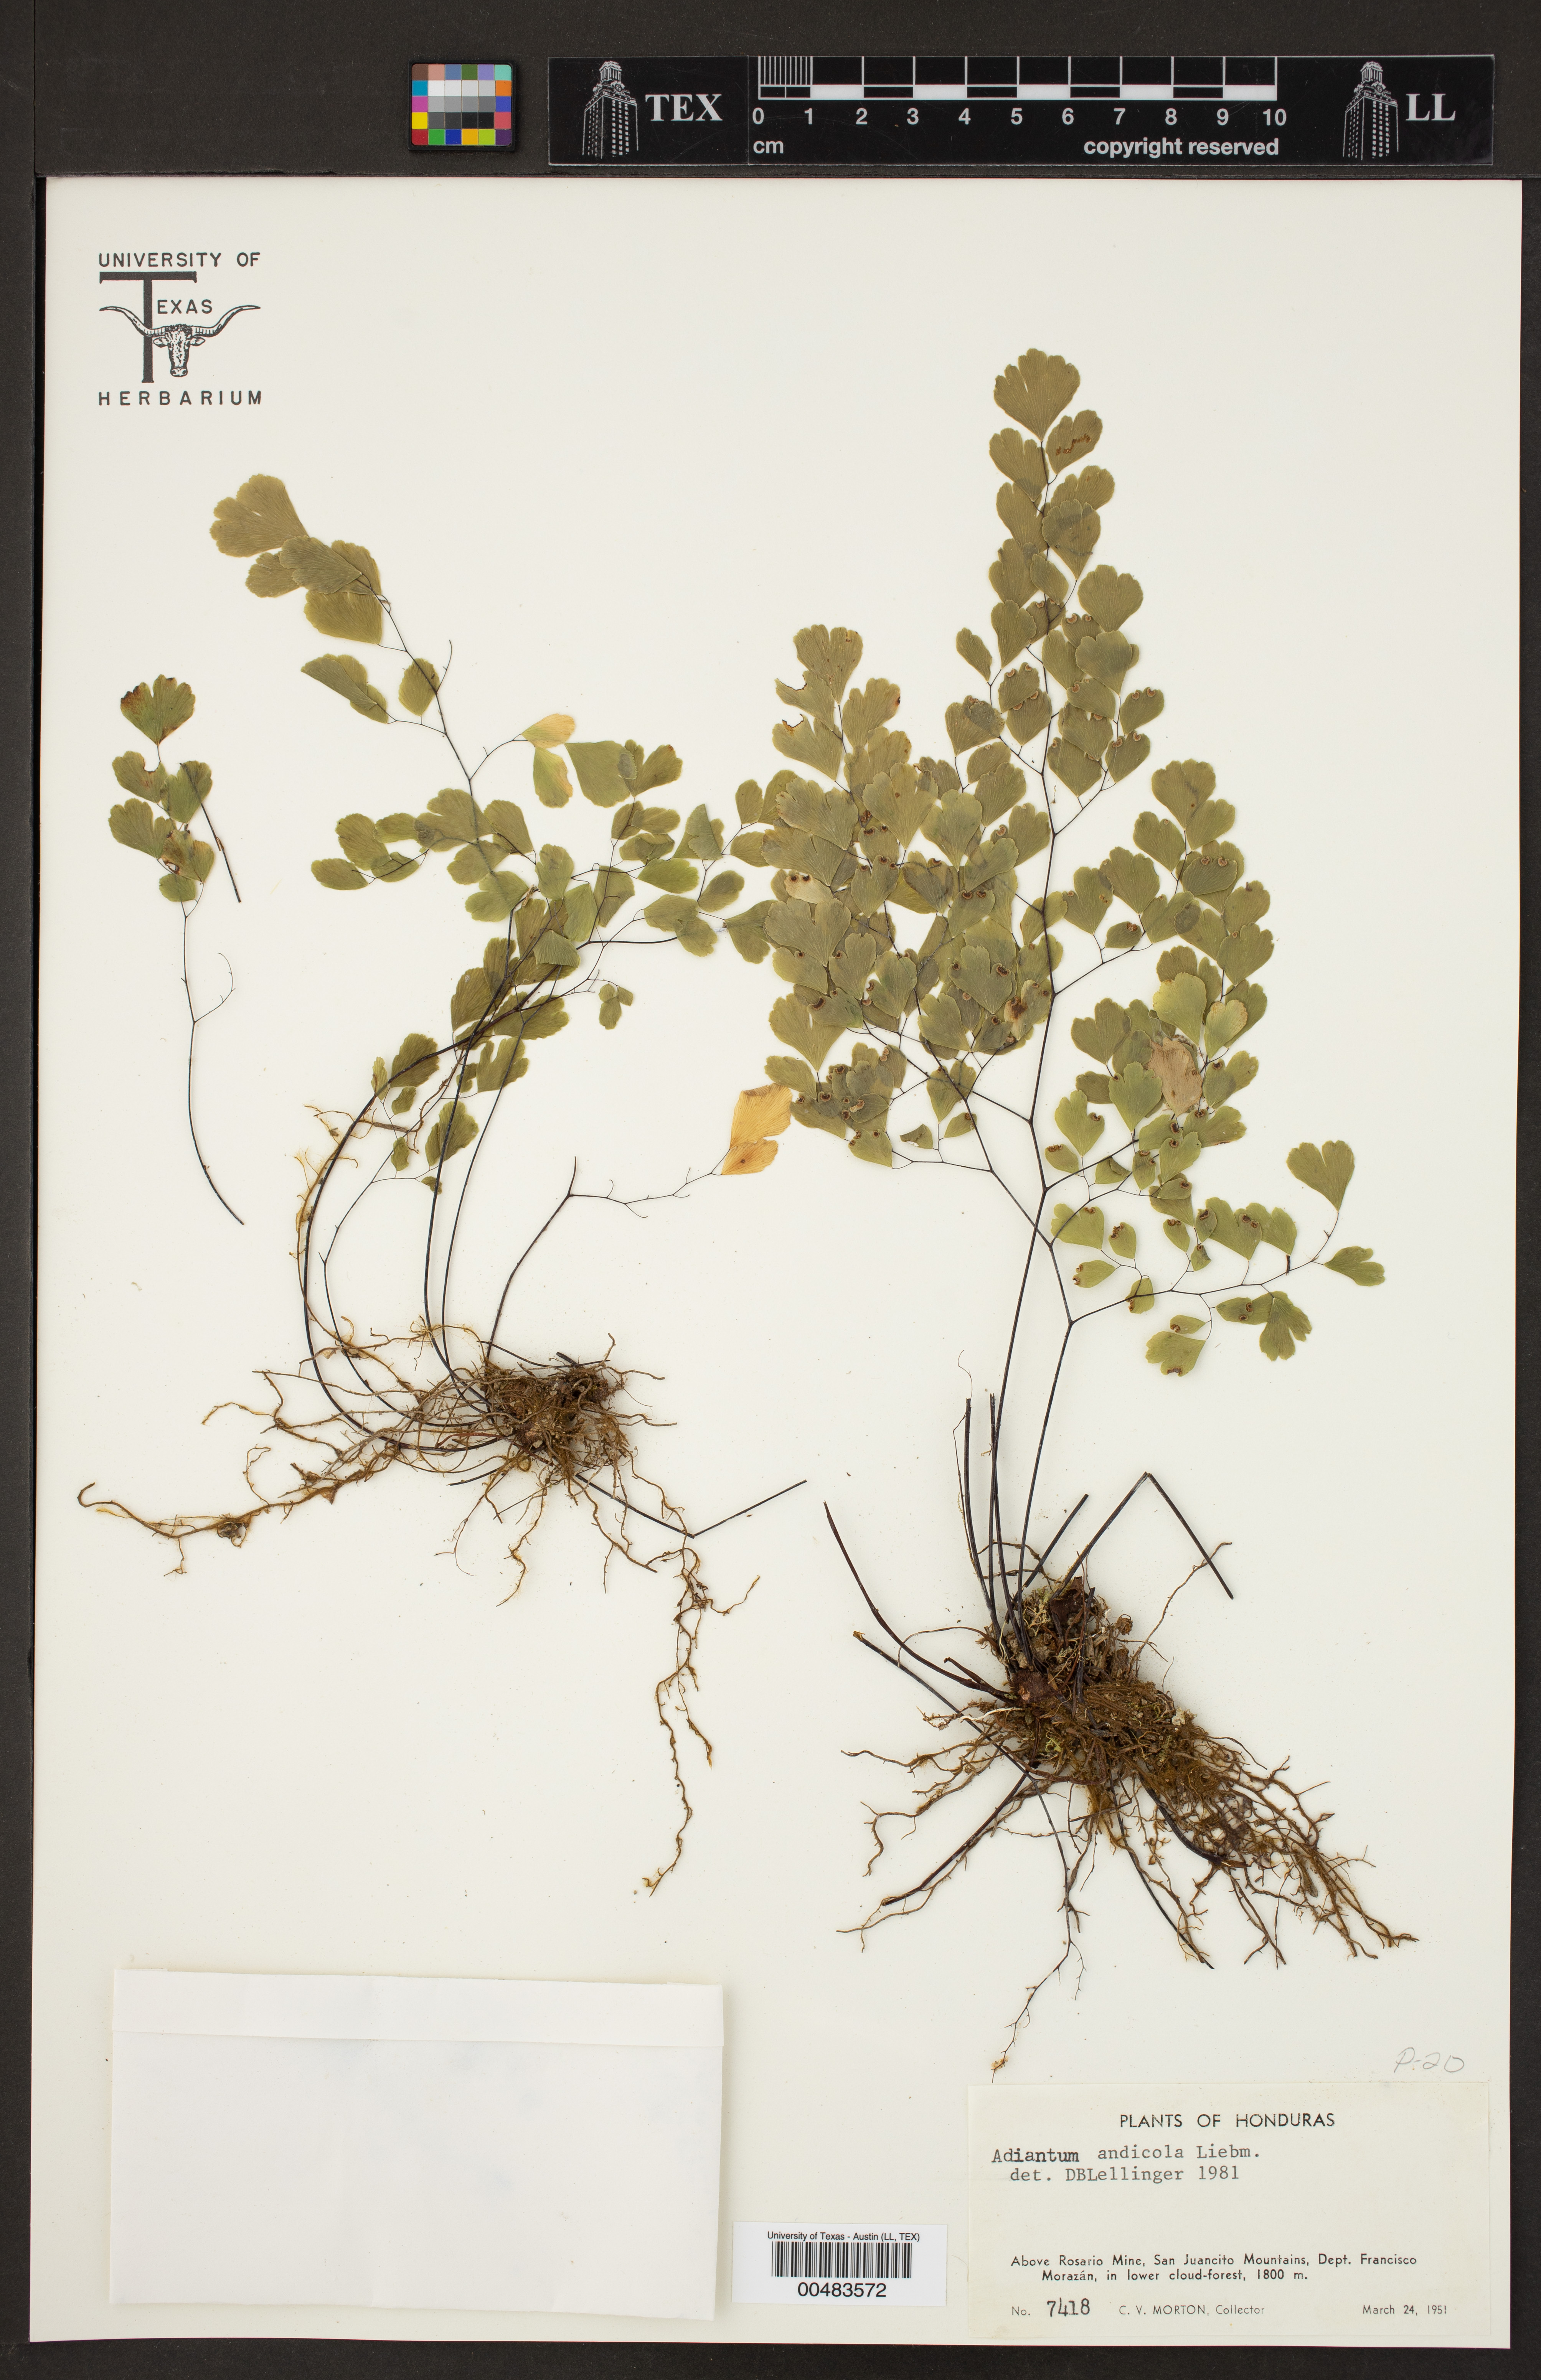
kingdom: Plantae
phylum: Tracheophyta
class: Polypodiopsida
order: Polypodiales
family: Pteridaceae
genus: Adiantum
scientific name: Adiantum andicola
